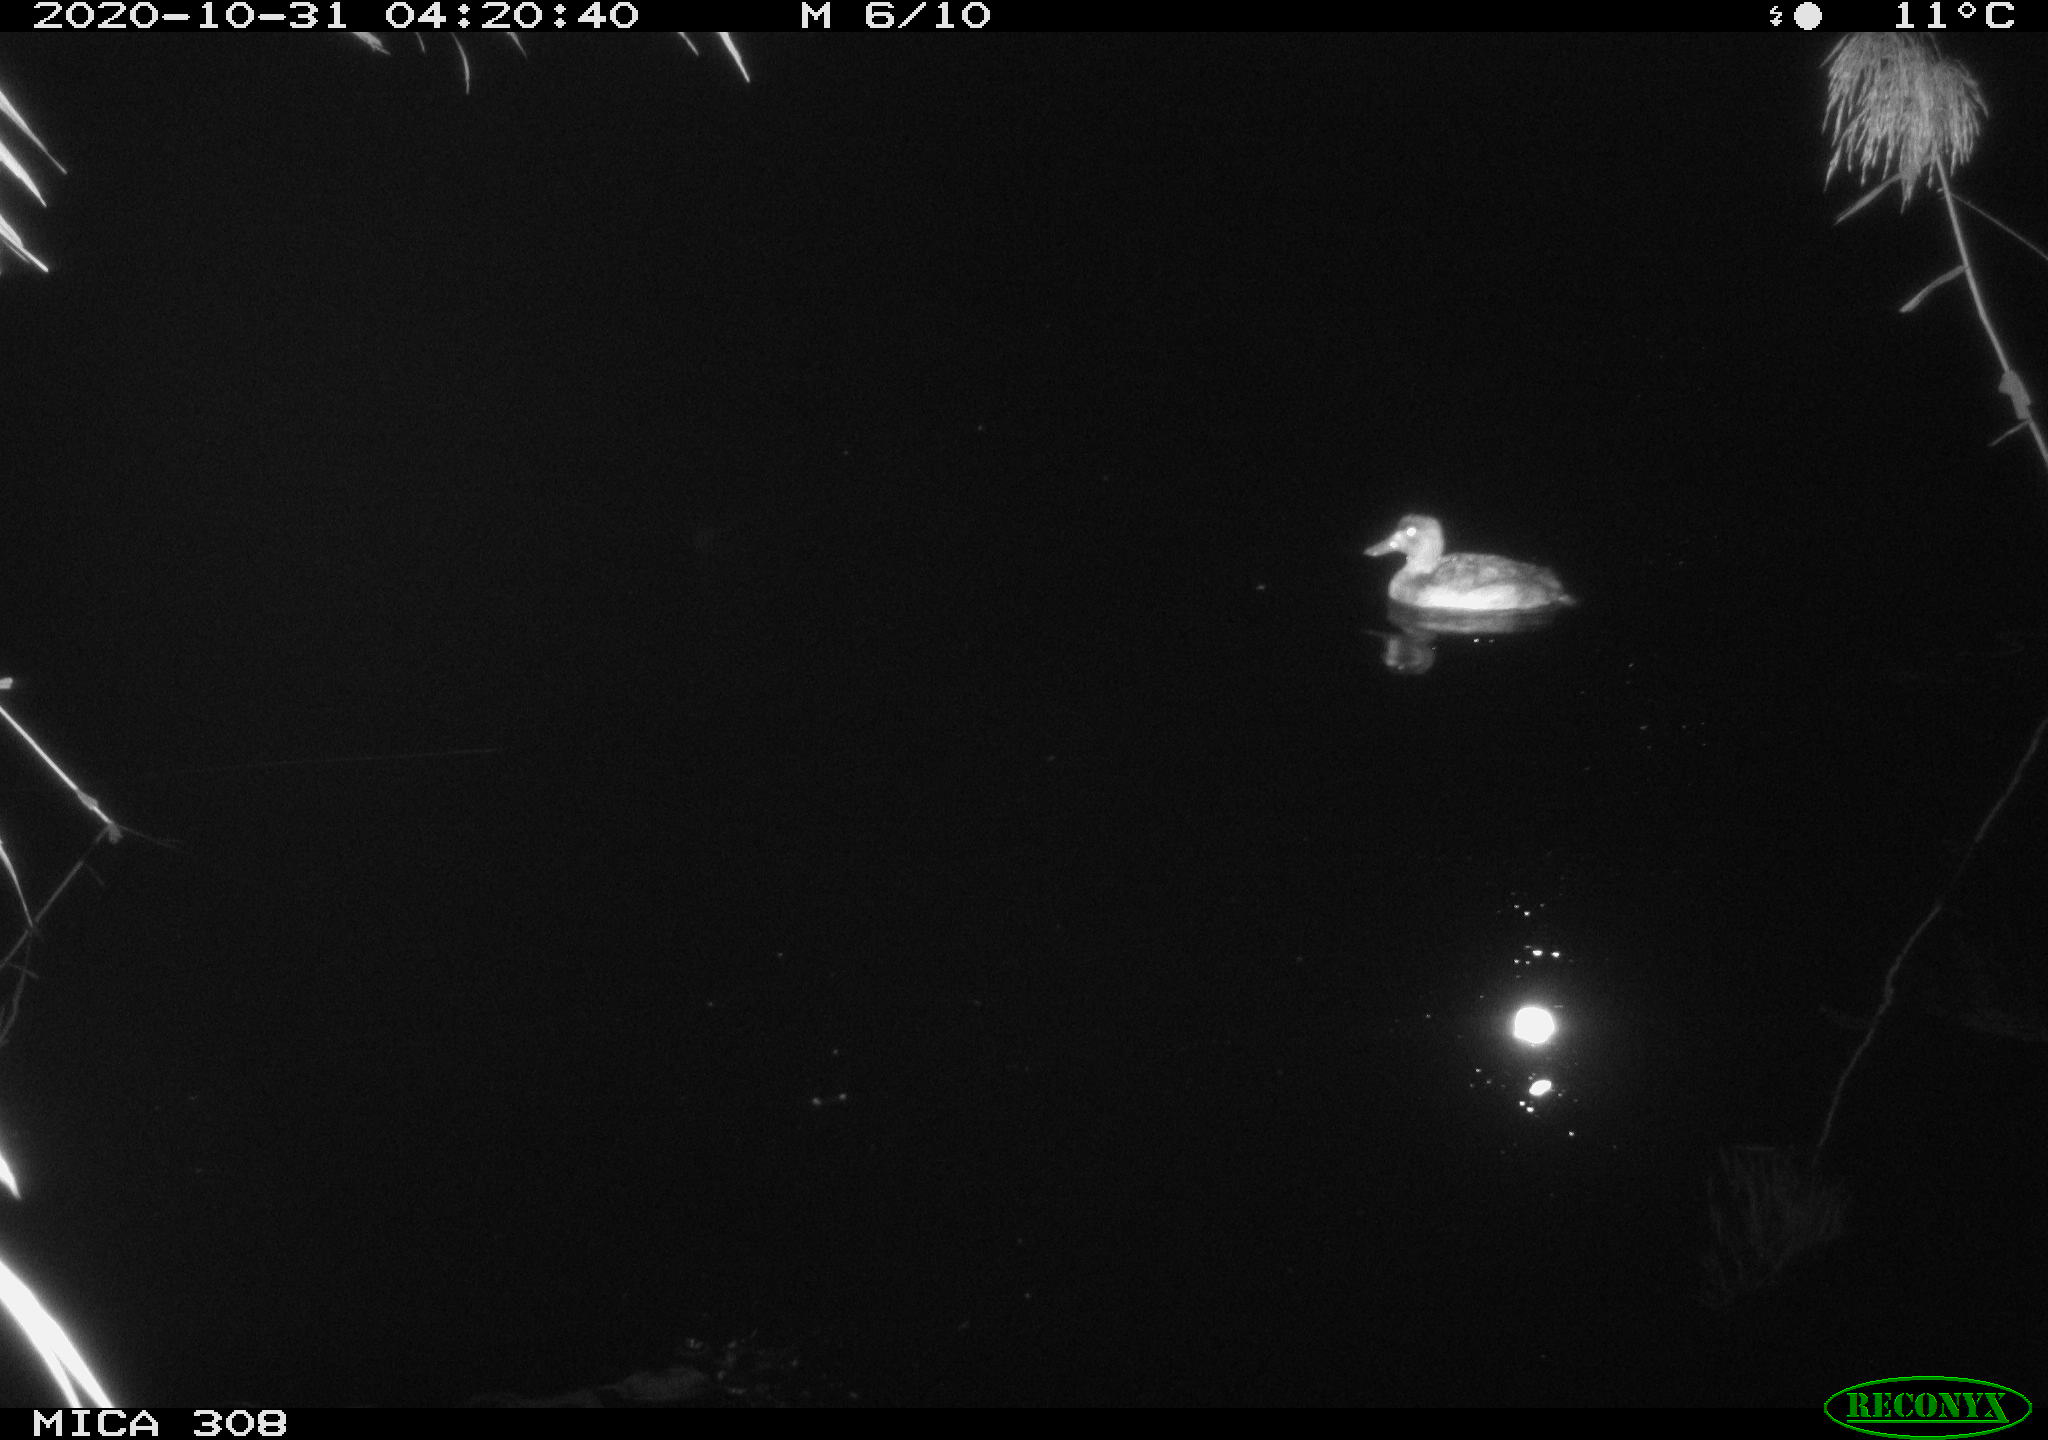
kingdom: Animalia
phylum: Chordata
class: Aves
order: Anseriformes
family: Anatidae
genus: Aythya
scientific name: Aythya fuligula
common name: Tufted duck
